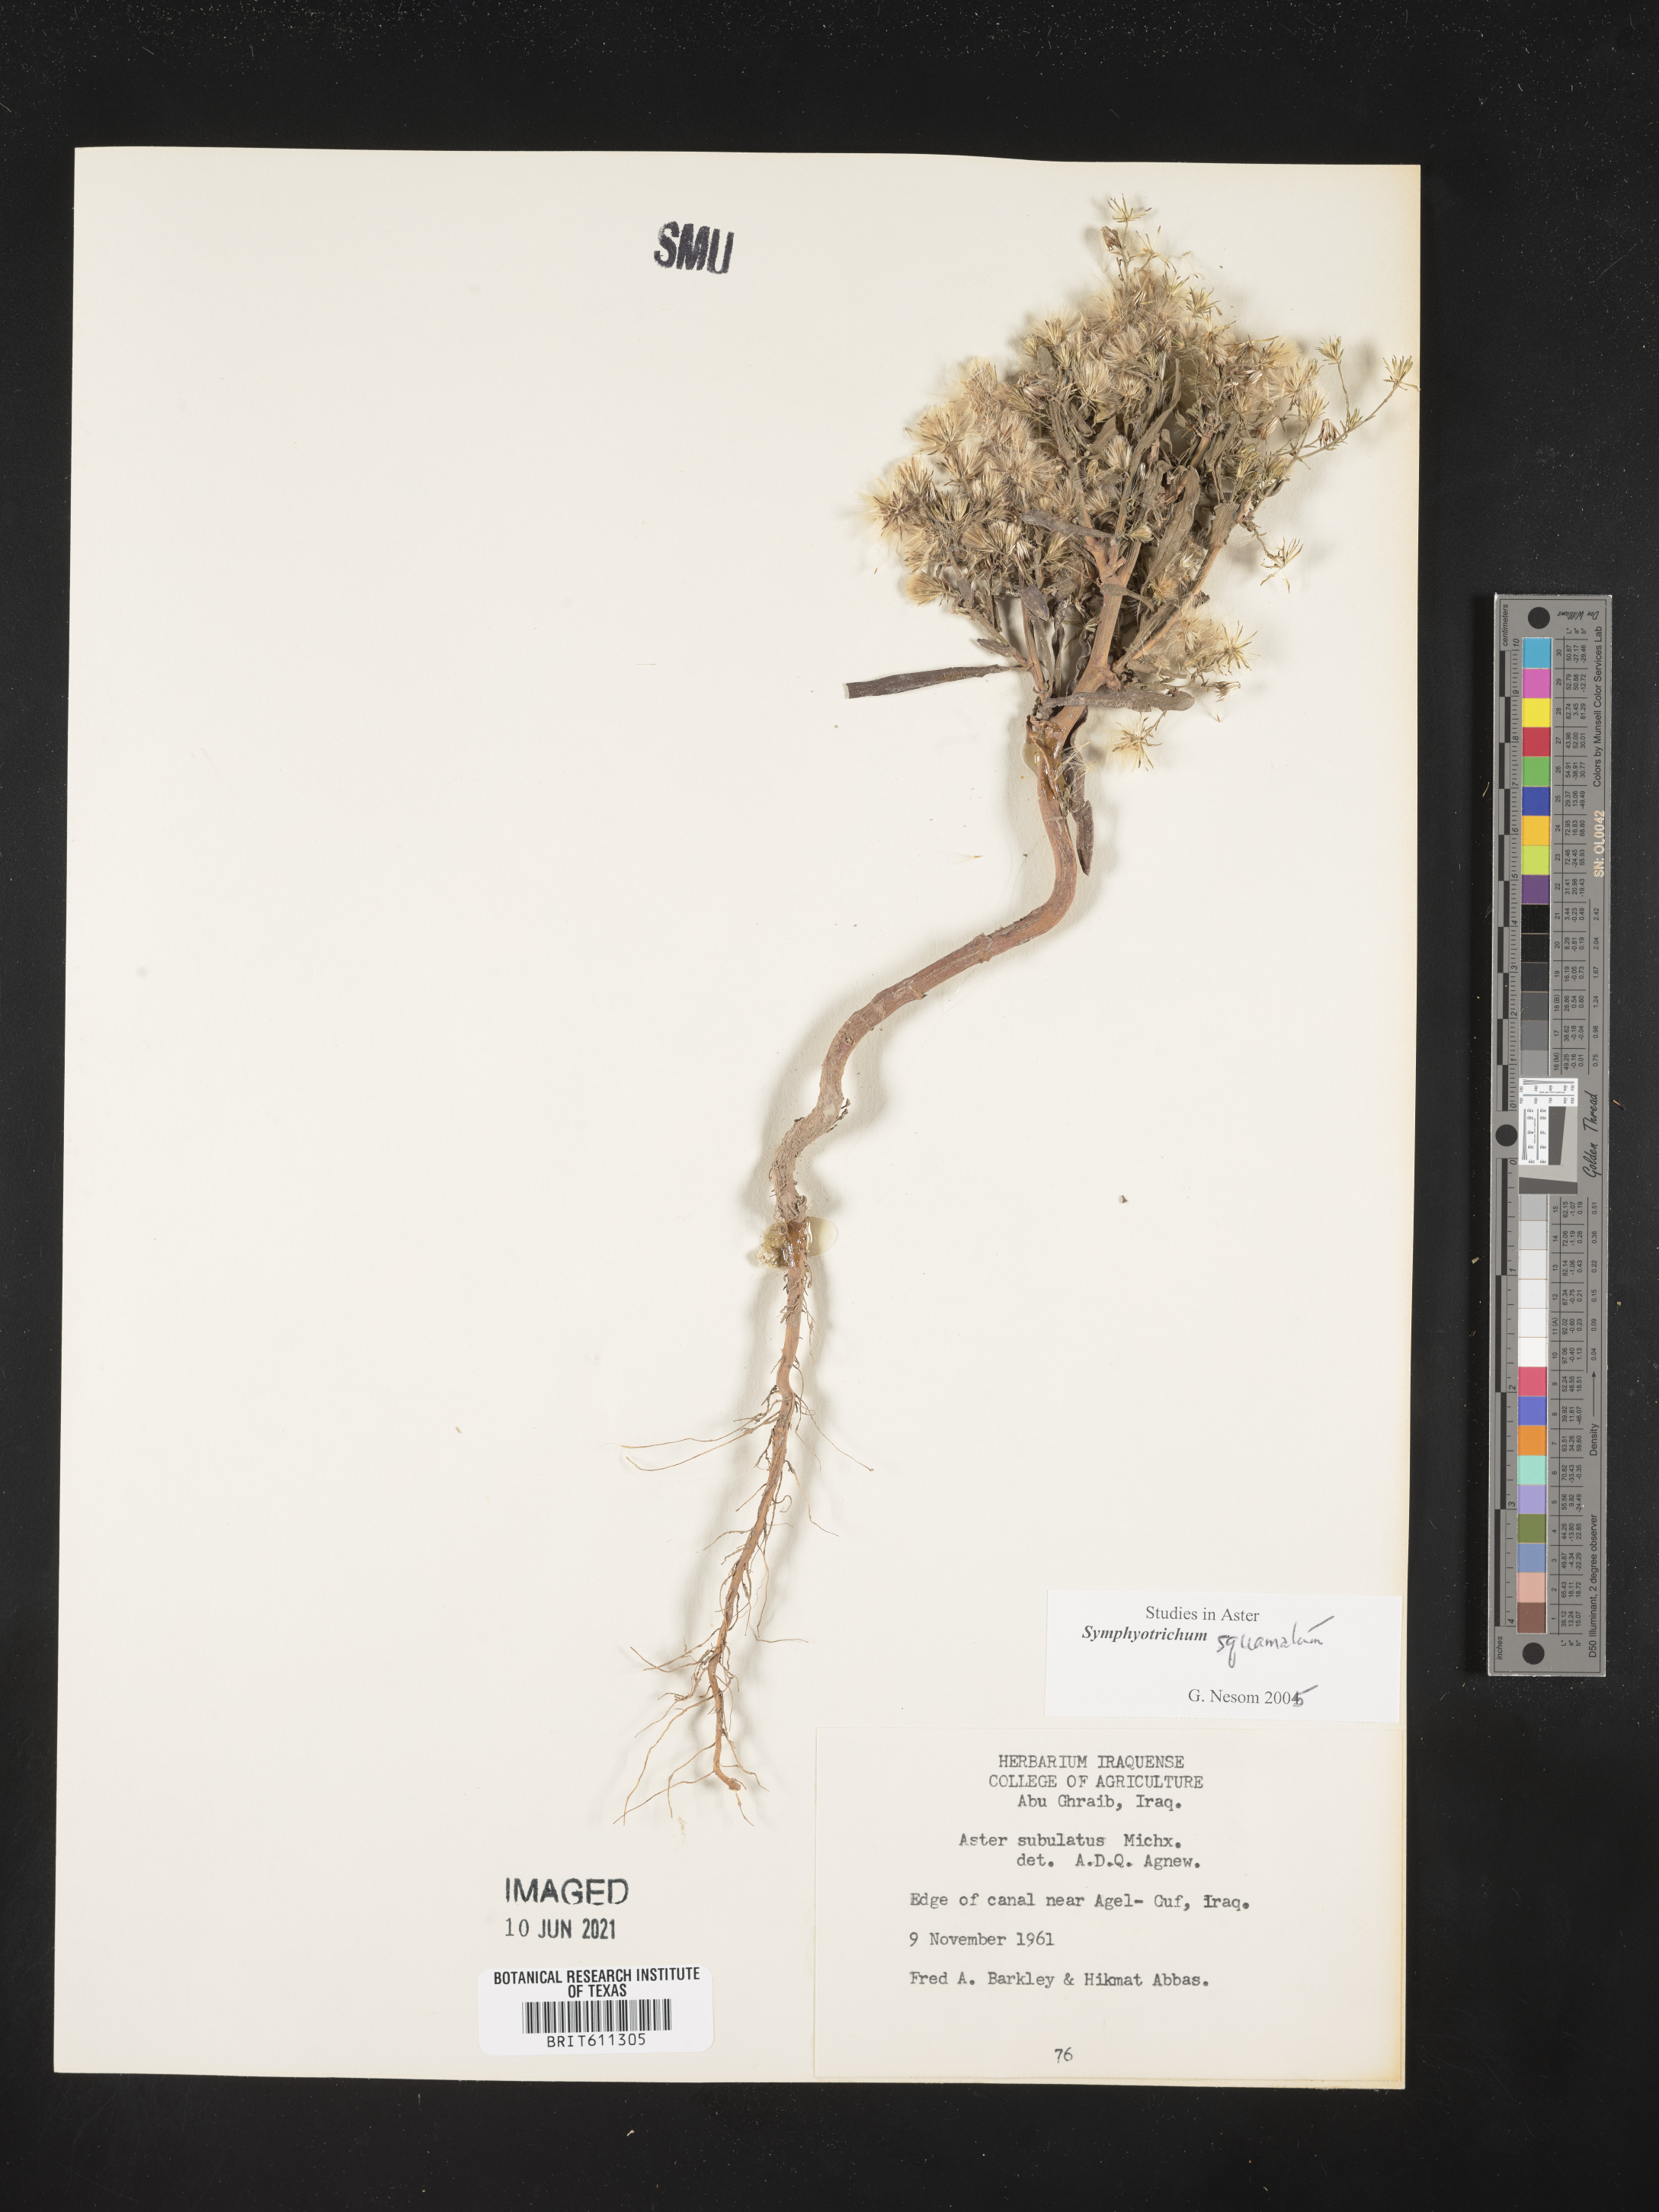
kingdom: Plantae
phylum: Tracheophyta
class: Magnoliopsida
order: Asterales
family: Asteraceae
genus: Symphyotrichum
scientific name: Symphyotrichum squamatum
